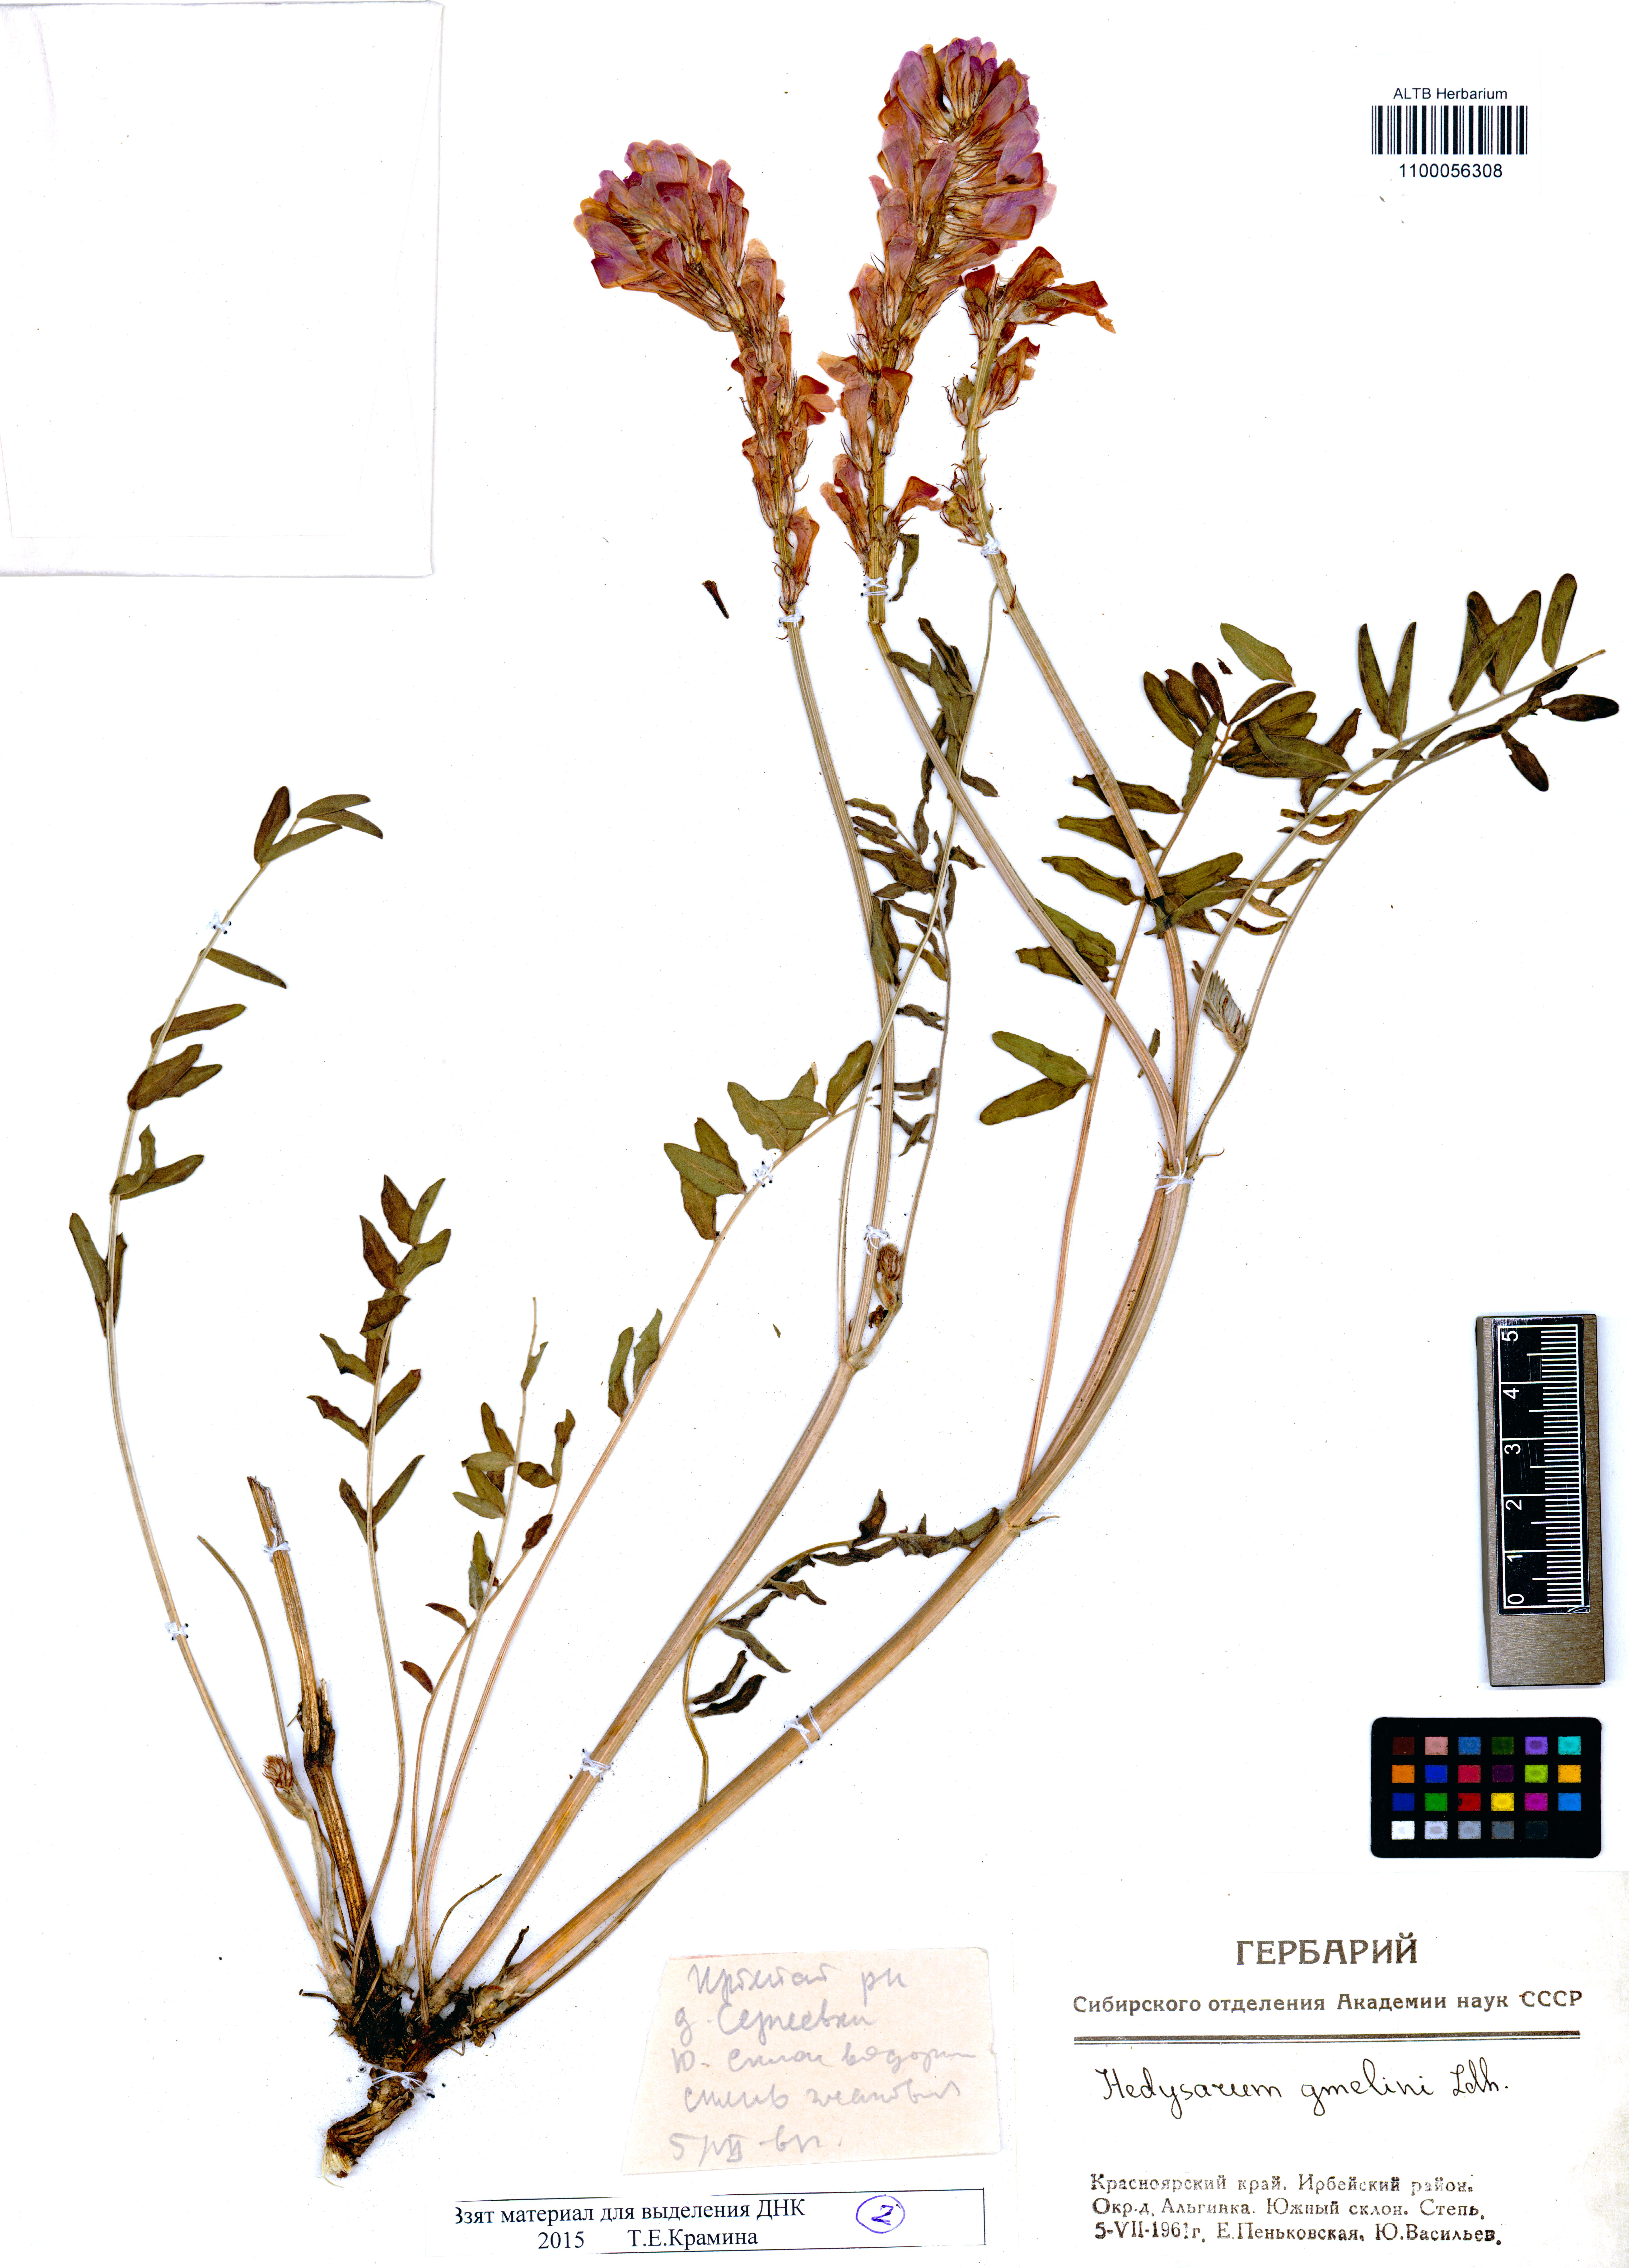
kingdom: Plantae
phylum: Tracheophyta
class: Magnoliopsida
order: Fabales
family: Fabaceae
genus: Hedysarum
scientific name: Hedysarum gmelinii
